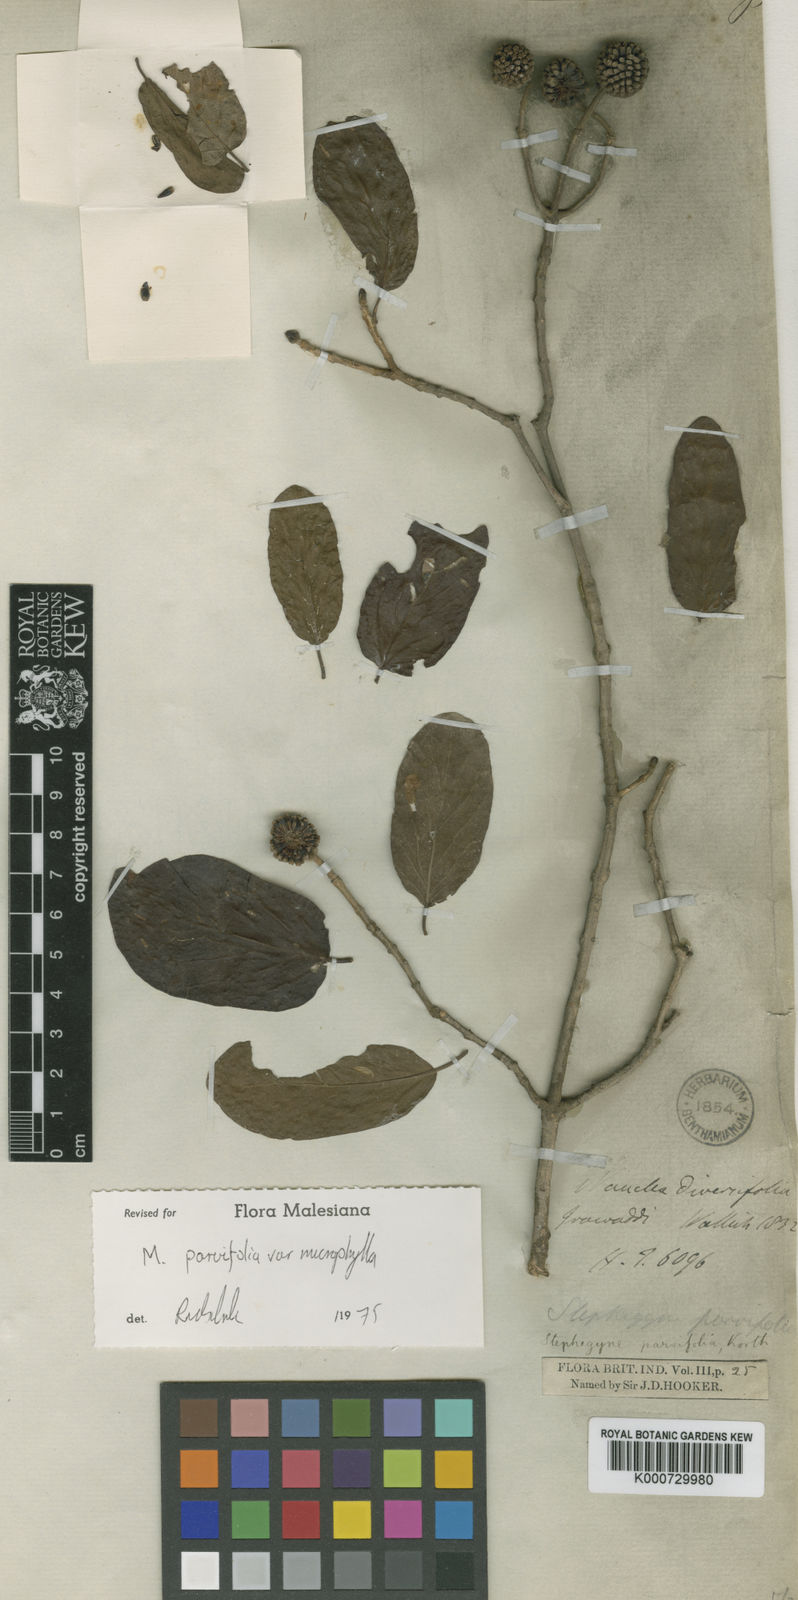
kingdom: Plantae
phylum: Tracheophyta
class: Magnoliopsida
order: Gentianales
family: Rubiaceae
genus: Mitragyna
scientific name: Mitragyna parvifolia
